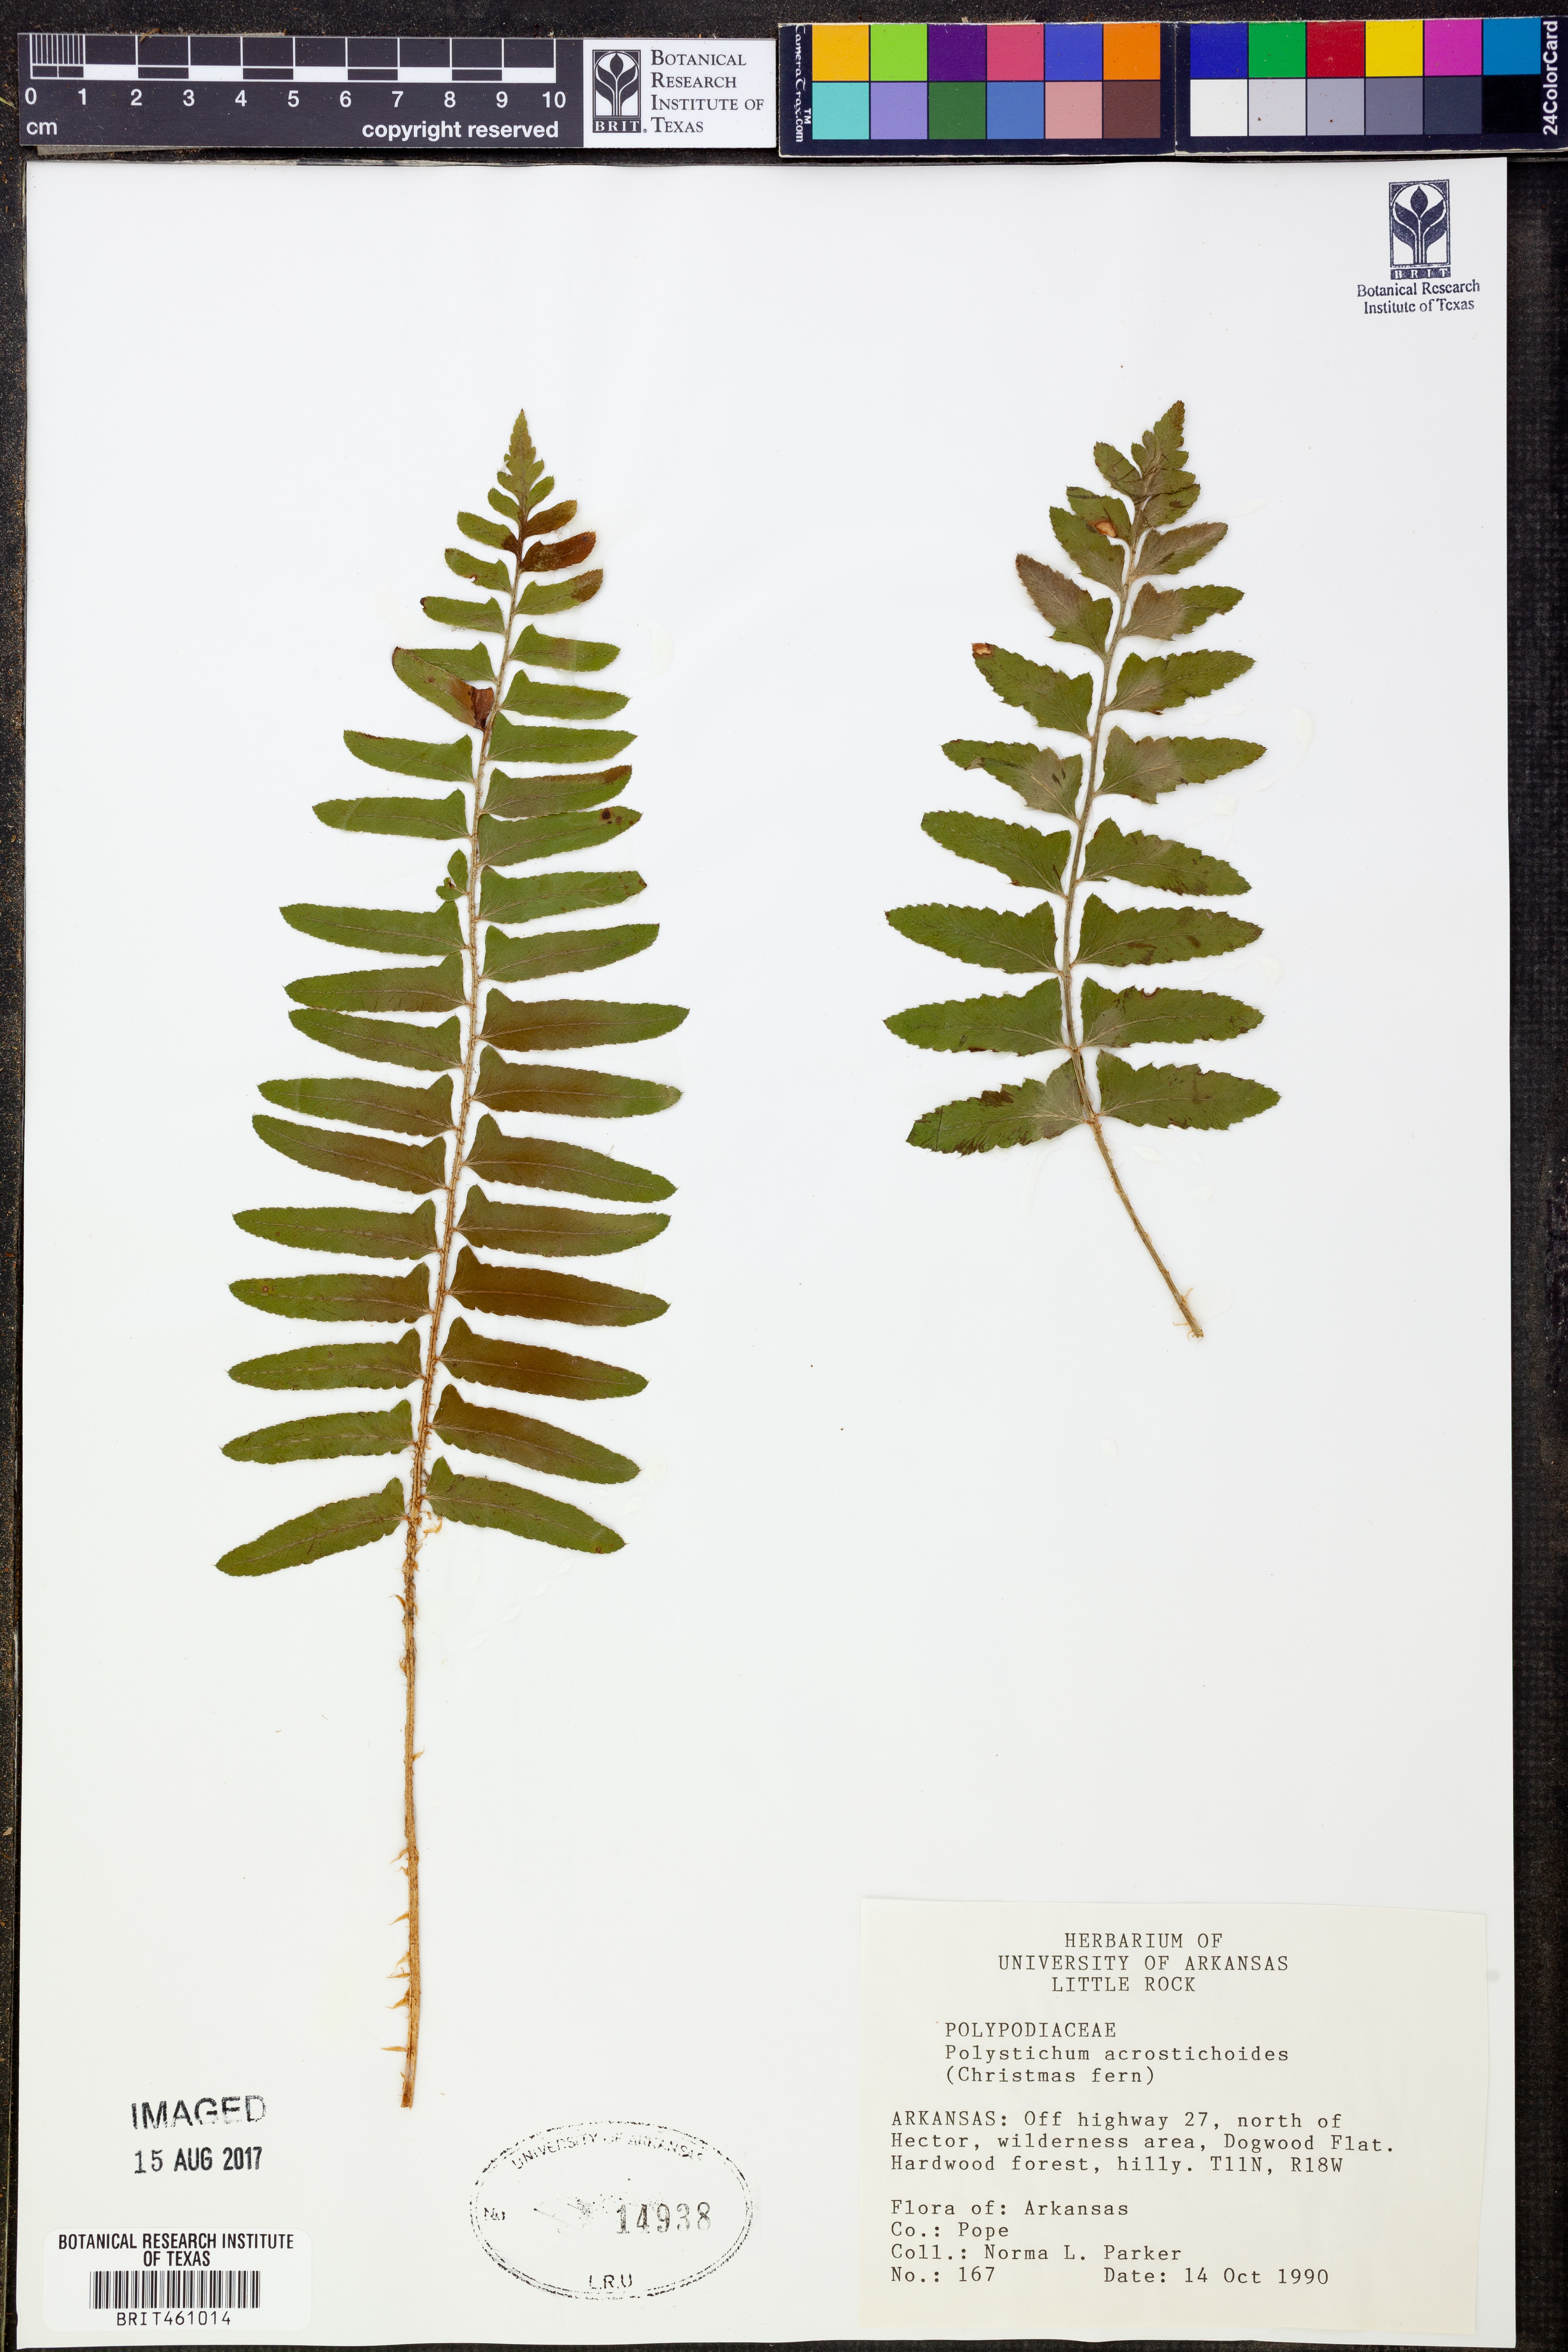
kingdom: Plantae
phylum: Tracheophyta
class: Polypodiopsida
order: Polypodiales
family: Dryopteridaceae
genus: Polystichum
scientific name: Polystichum acrostichoides
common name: Christmas fern
